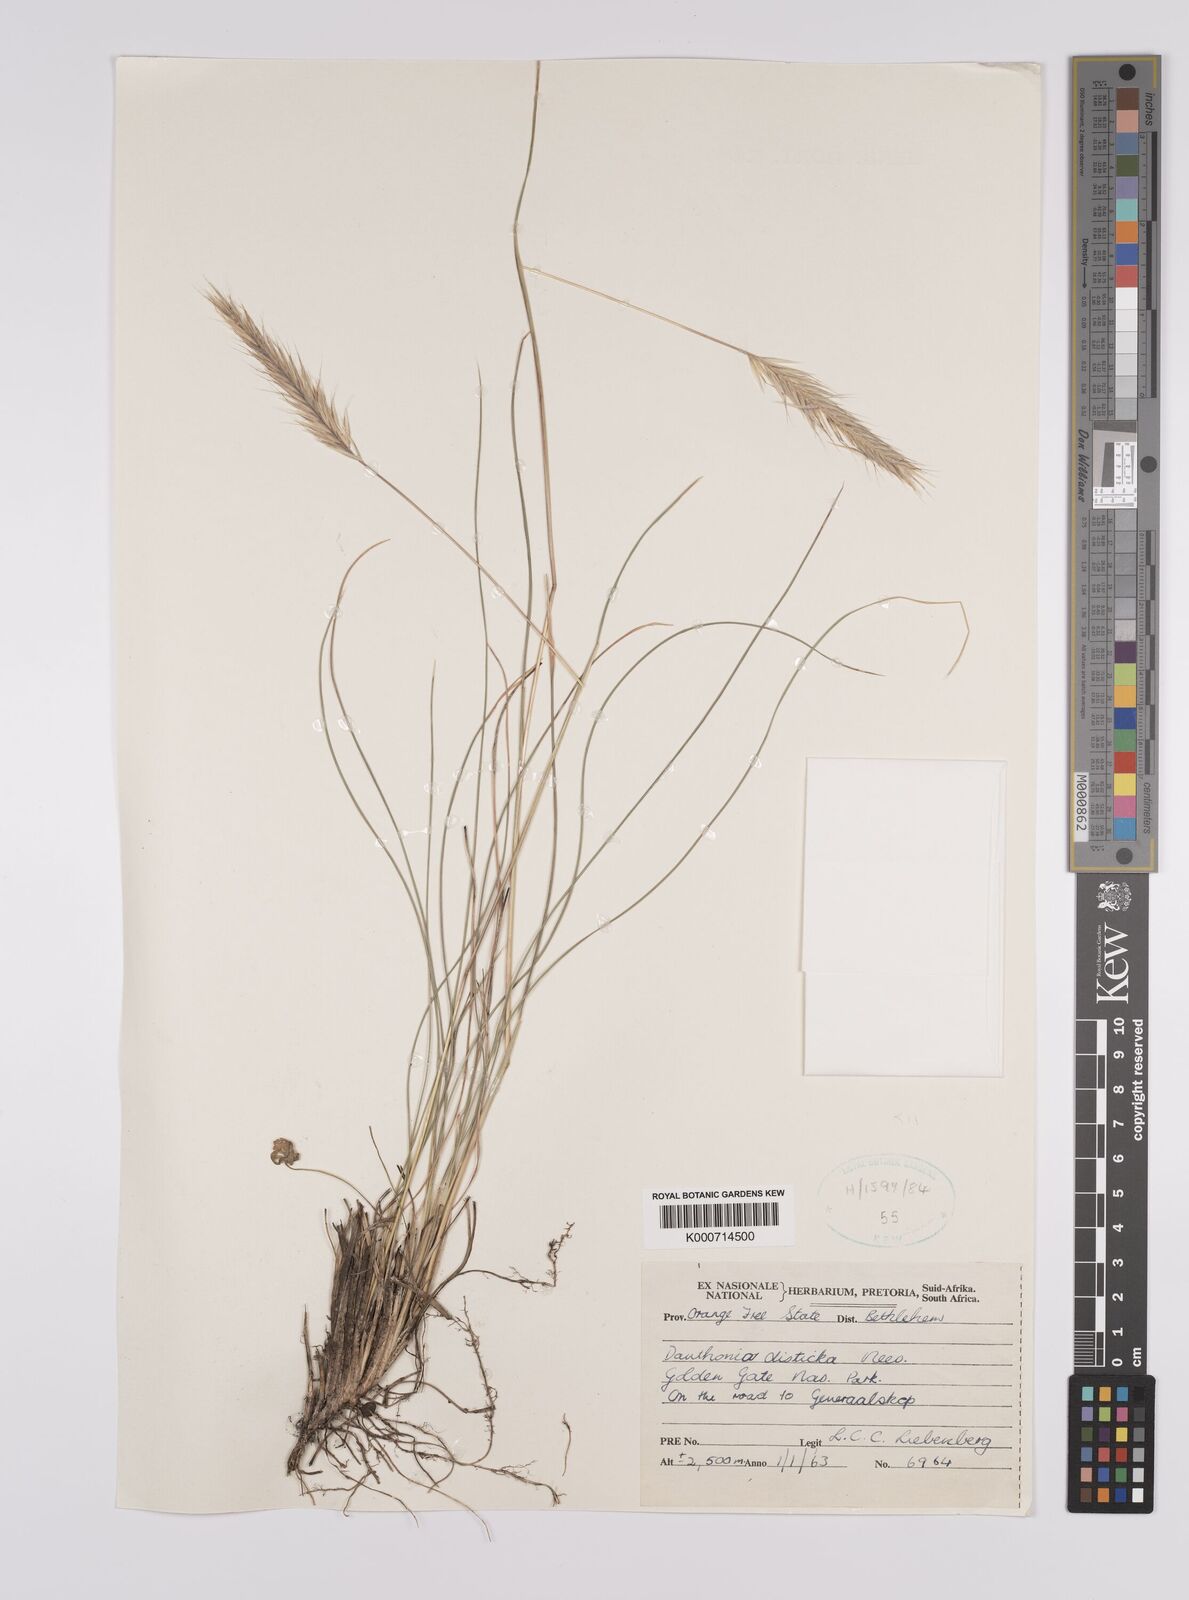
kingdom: Plantae
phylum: Tracheophyta
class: Liliopsida
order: Poales
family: Poaceae
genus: Tenaxia
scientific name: Tenaxia disticha
